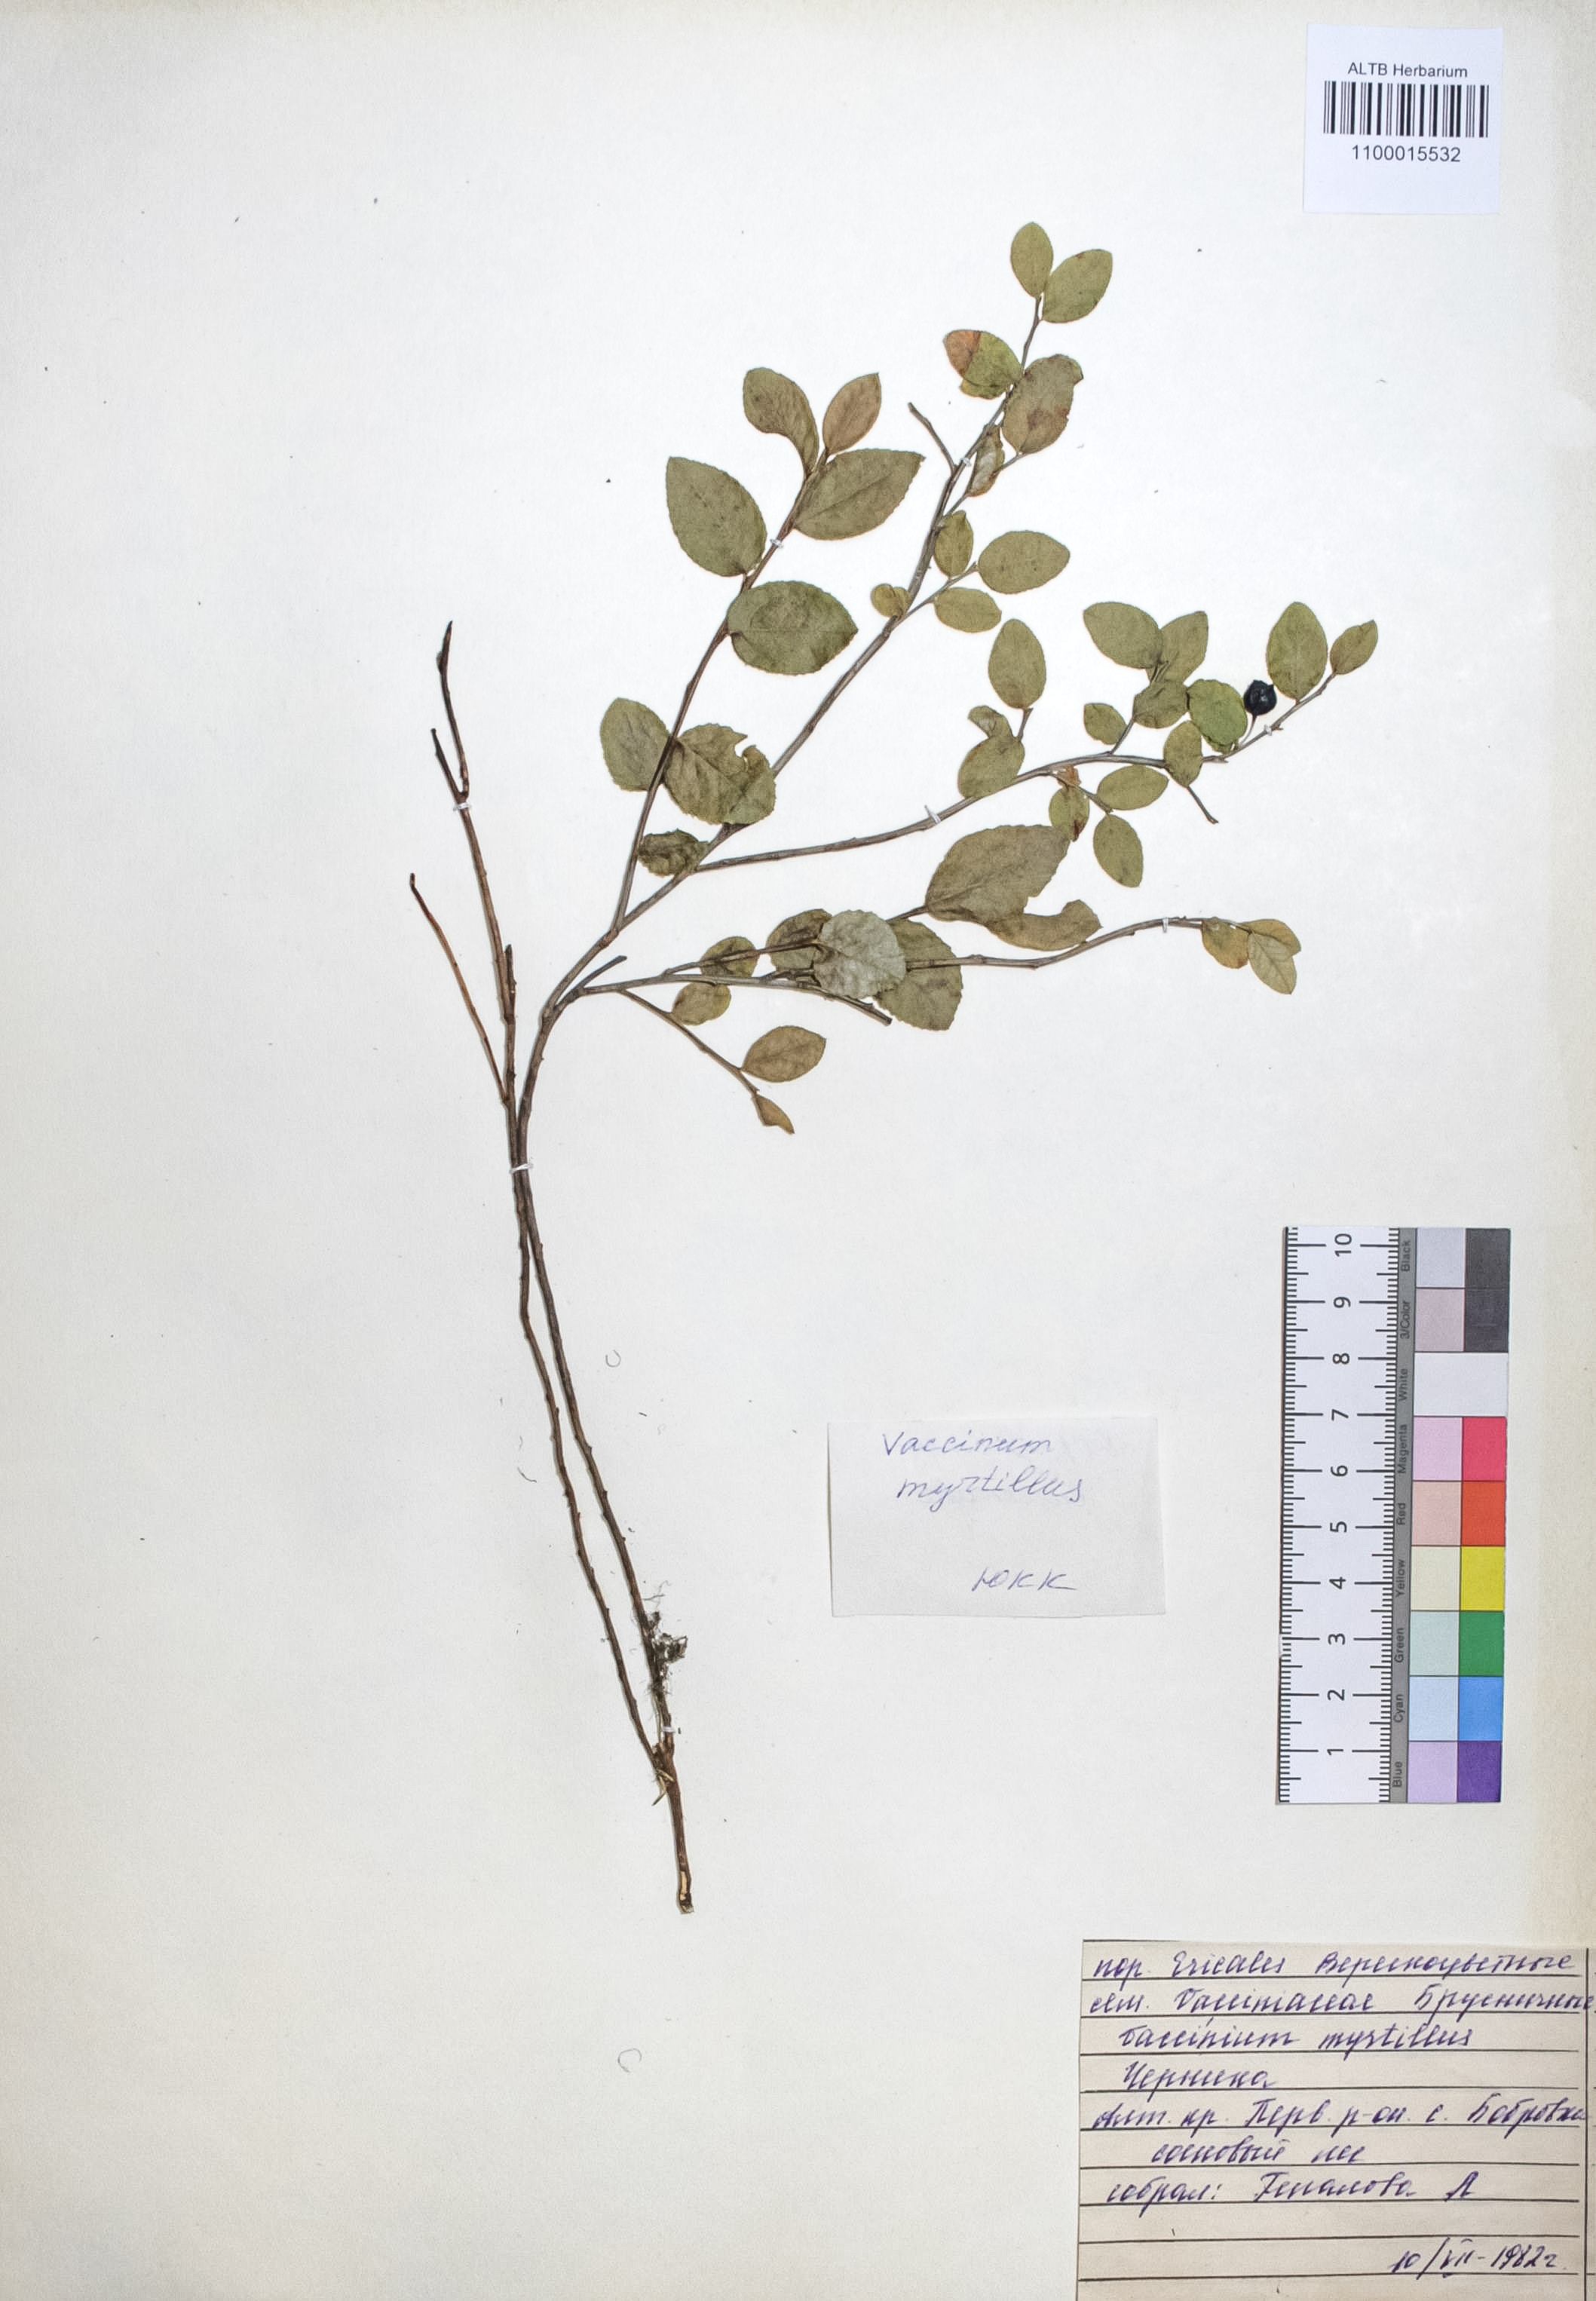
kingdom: Plantae
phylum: Tracheophyta
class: Magnoliopsida
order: Ericales
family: Ericaceae
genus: Vaccinium
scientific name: Vaccinium myrtillus
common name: Bilberry
